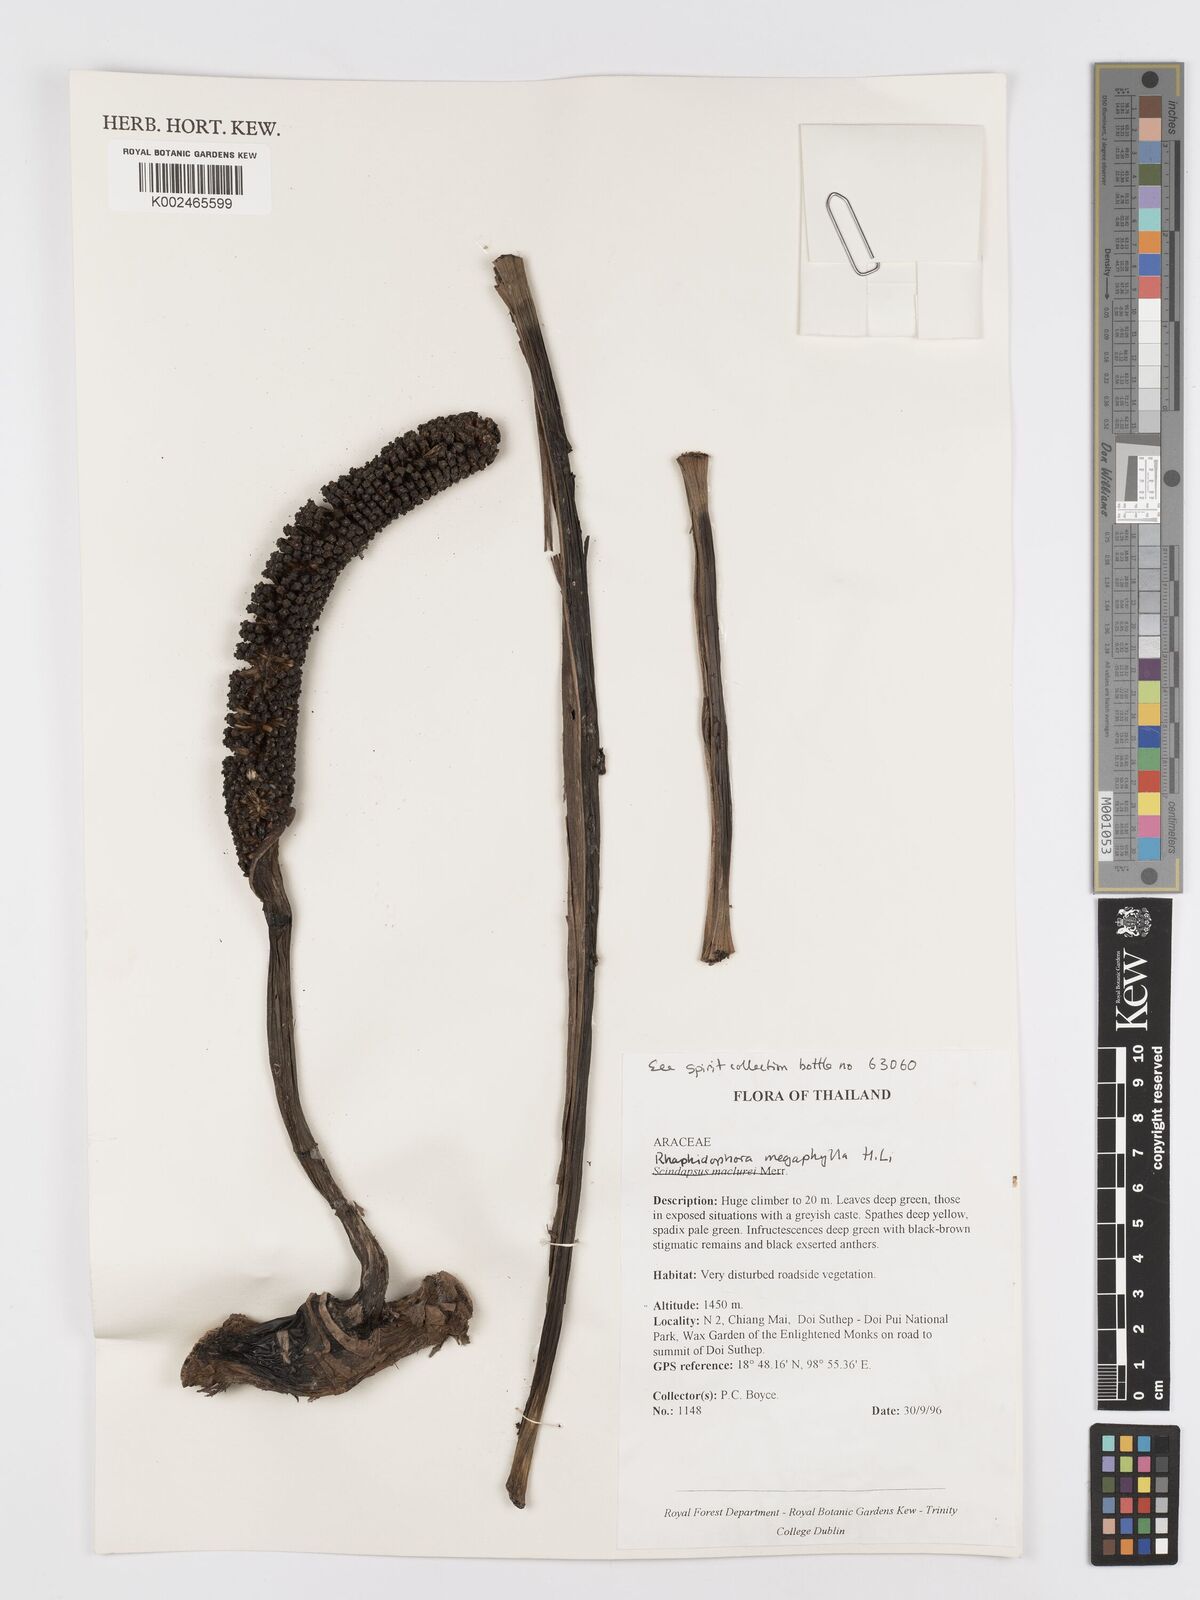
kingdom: Plantae
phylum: Tracheophyta
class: Liliopsida
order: Alismatales
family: Araceae
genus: Rhaphidophora
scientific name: Rhaphidophora megaphylla
